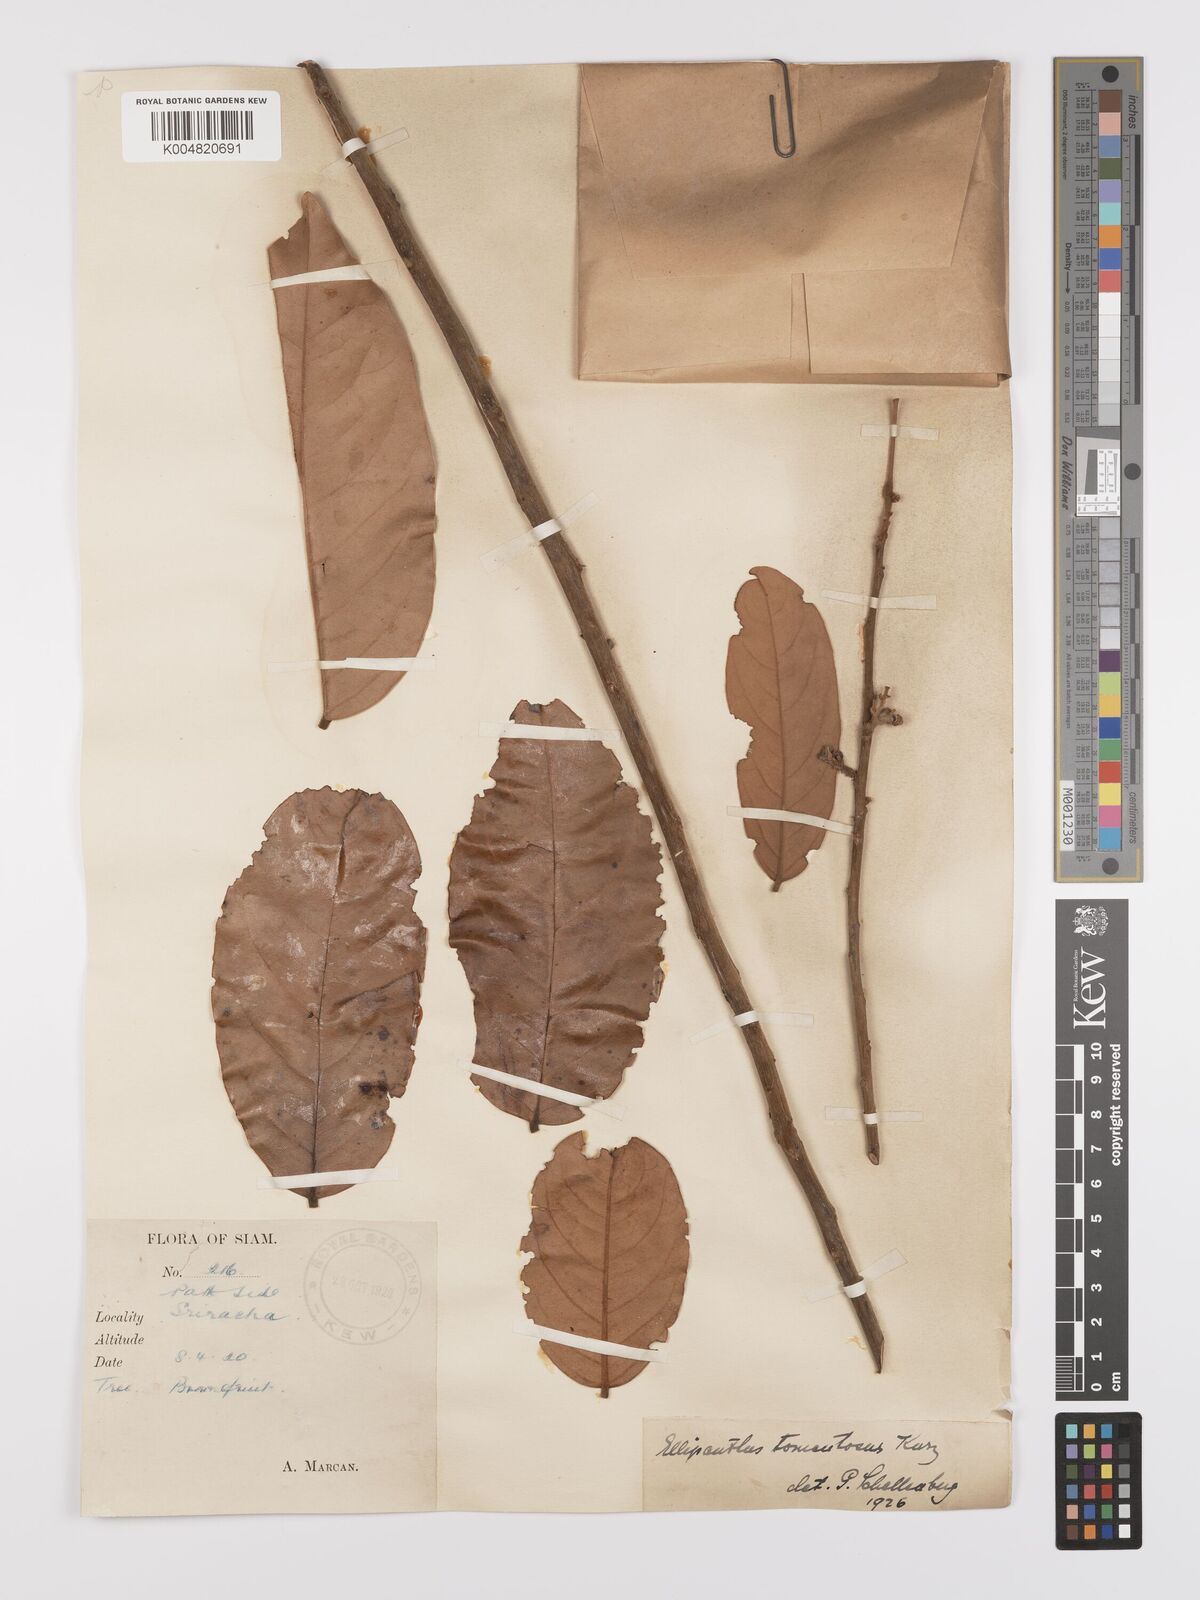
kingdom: Plantae
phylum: Tracheophyta
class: Magnoliopsida
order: Oxalidales
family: Connaraceae
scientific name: Connaraceae
